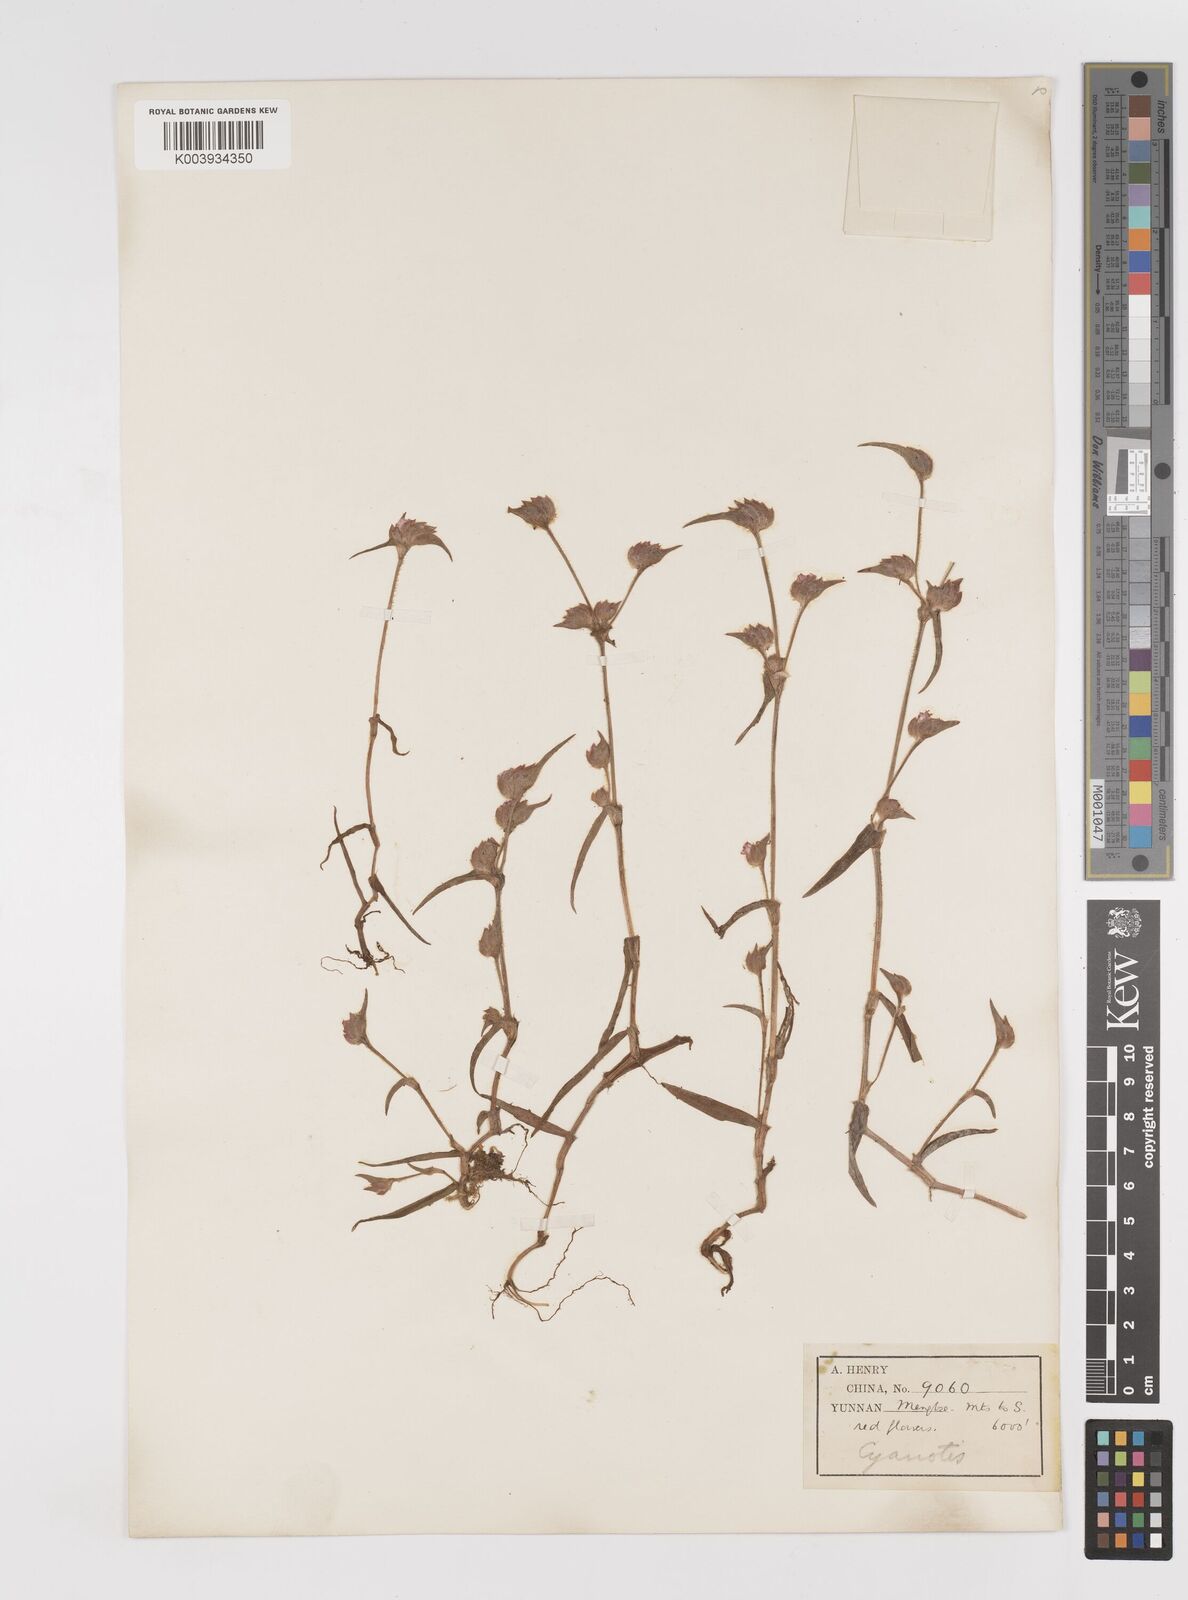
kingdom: Plantae
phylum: Tracheophyta
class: Liliopsida
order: Commelinales
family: Commelinaceae
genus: Cyanotis
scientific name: Cyanotis vaga
